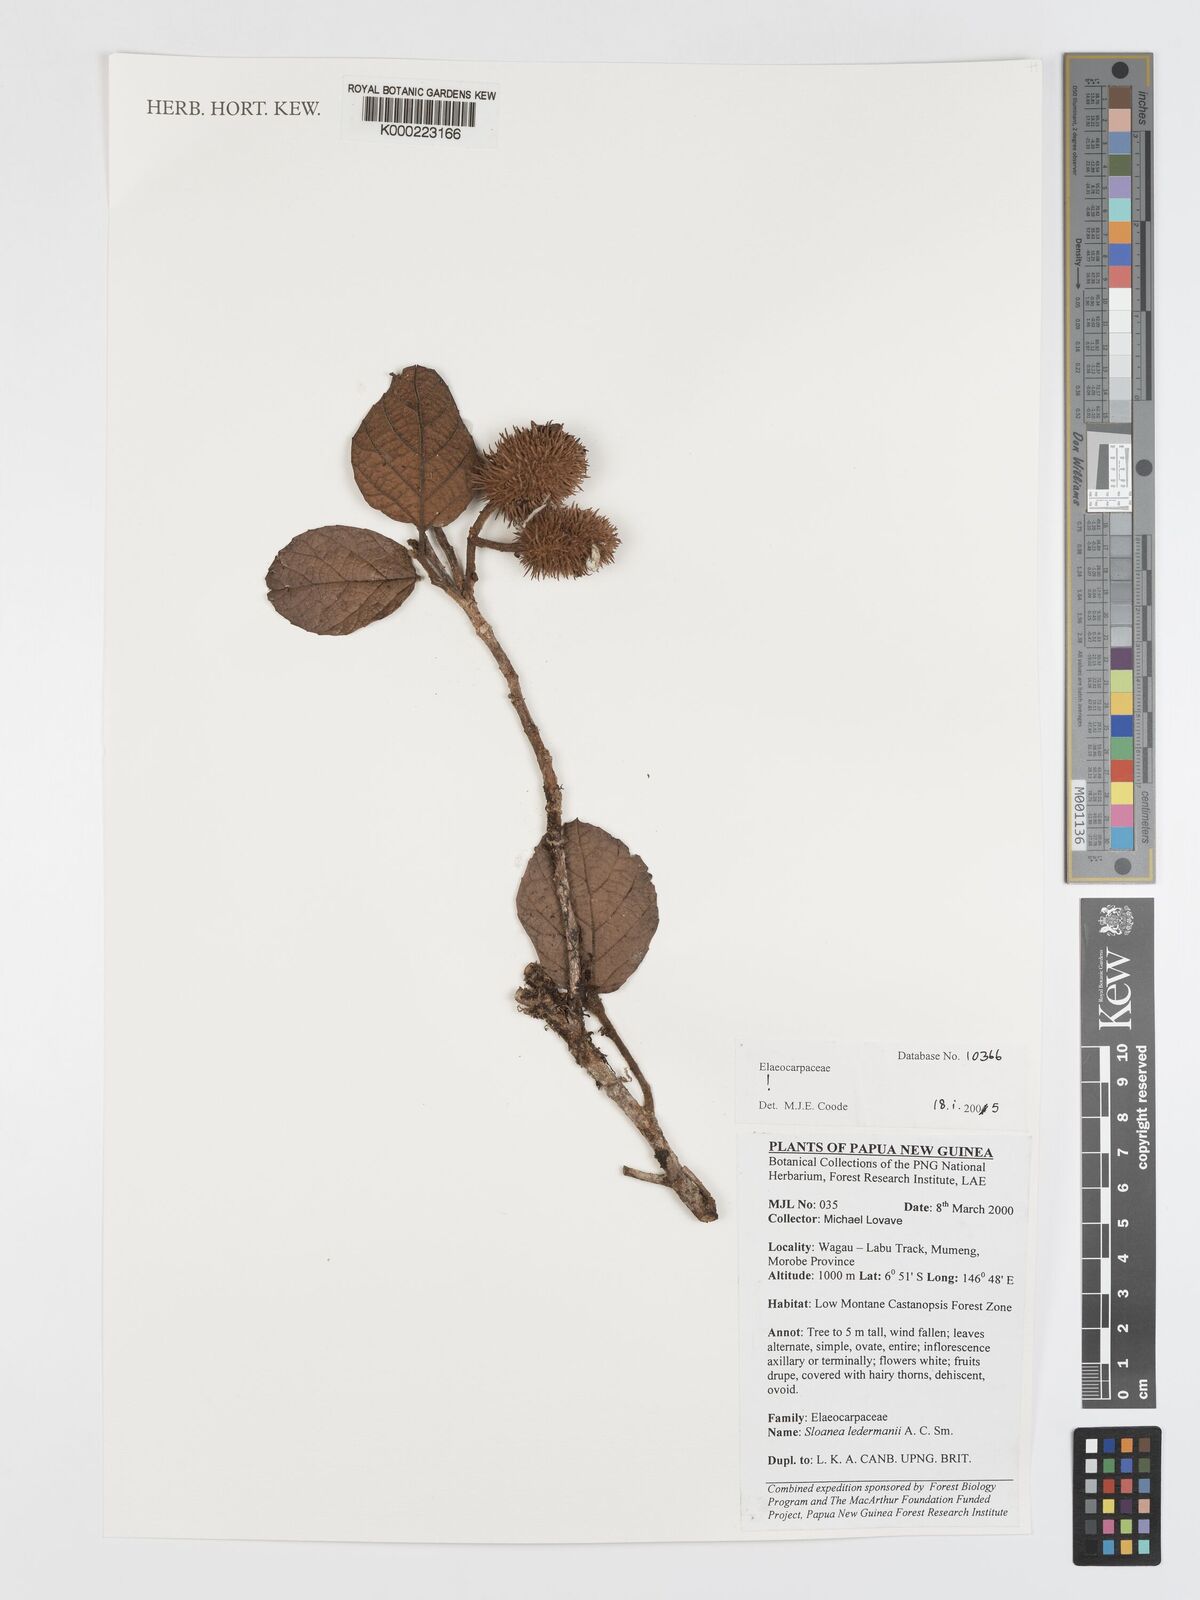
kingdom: Plantae
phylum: Tracheophyta
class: Magnoliopsida
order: Oxalidales
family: Elaeocarpaceae
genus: Sloanea
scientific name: Sloanea ledermannii
